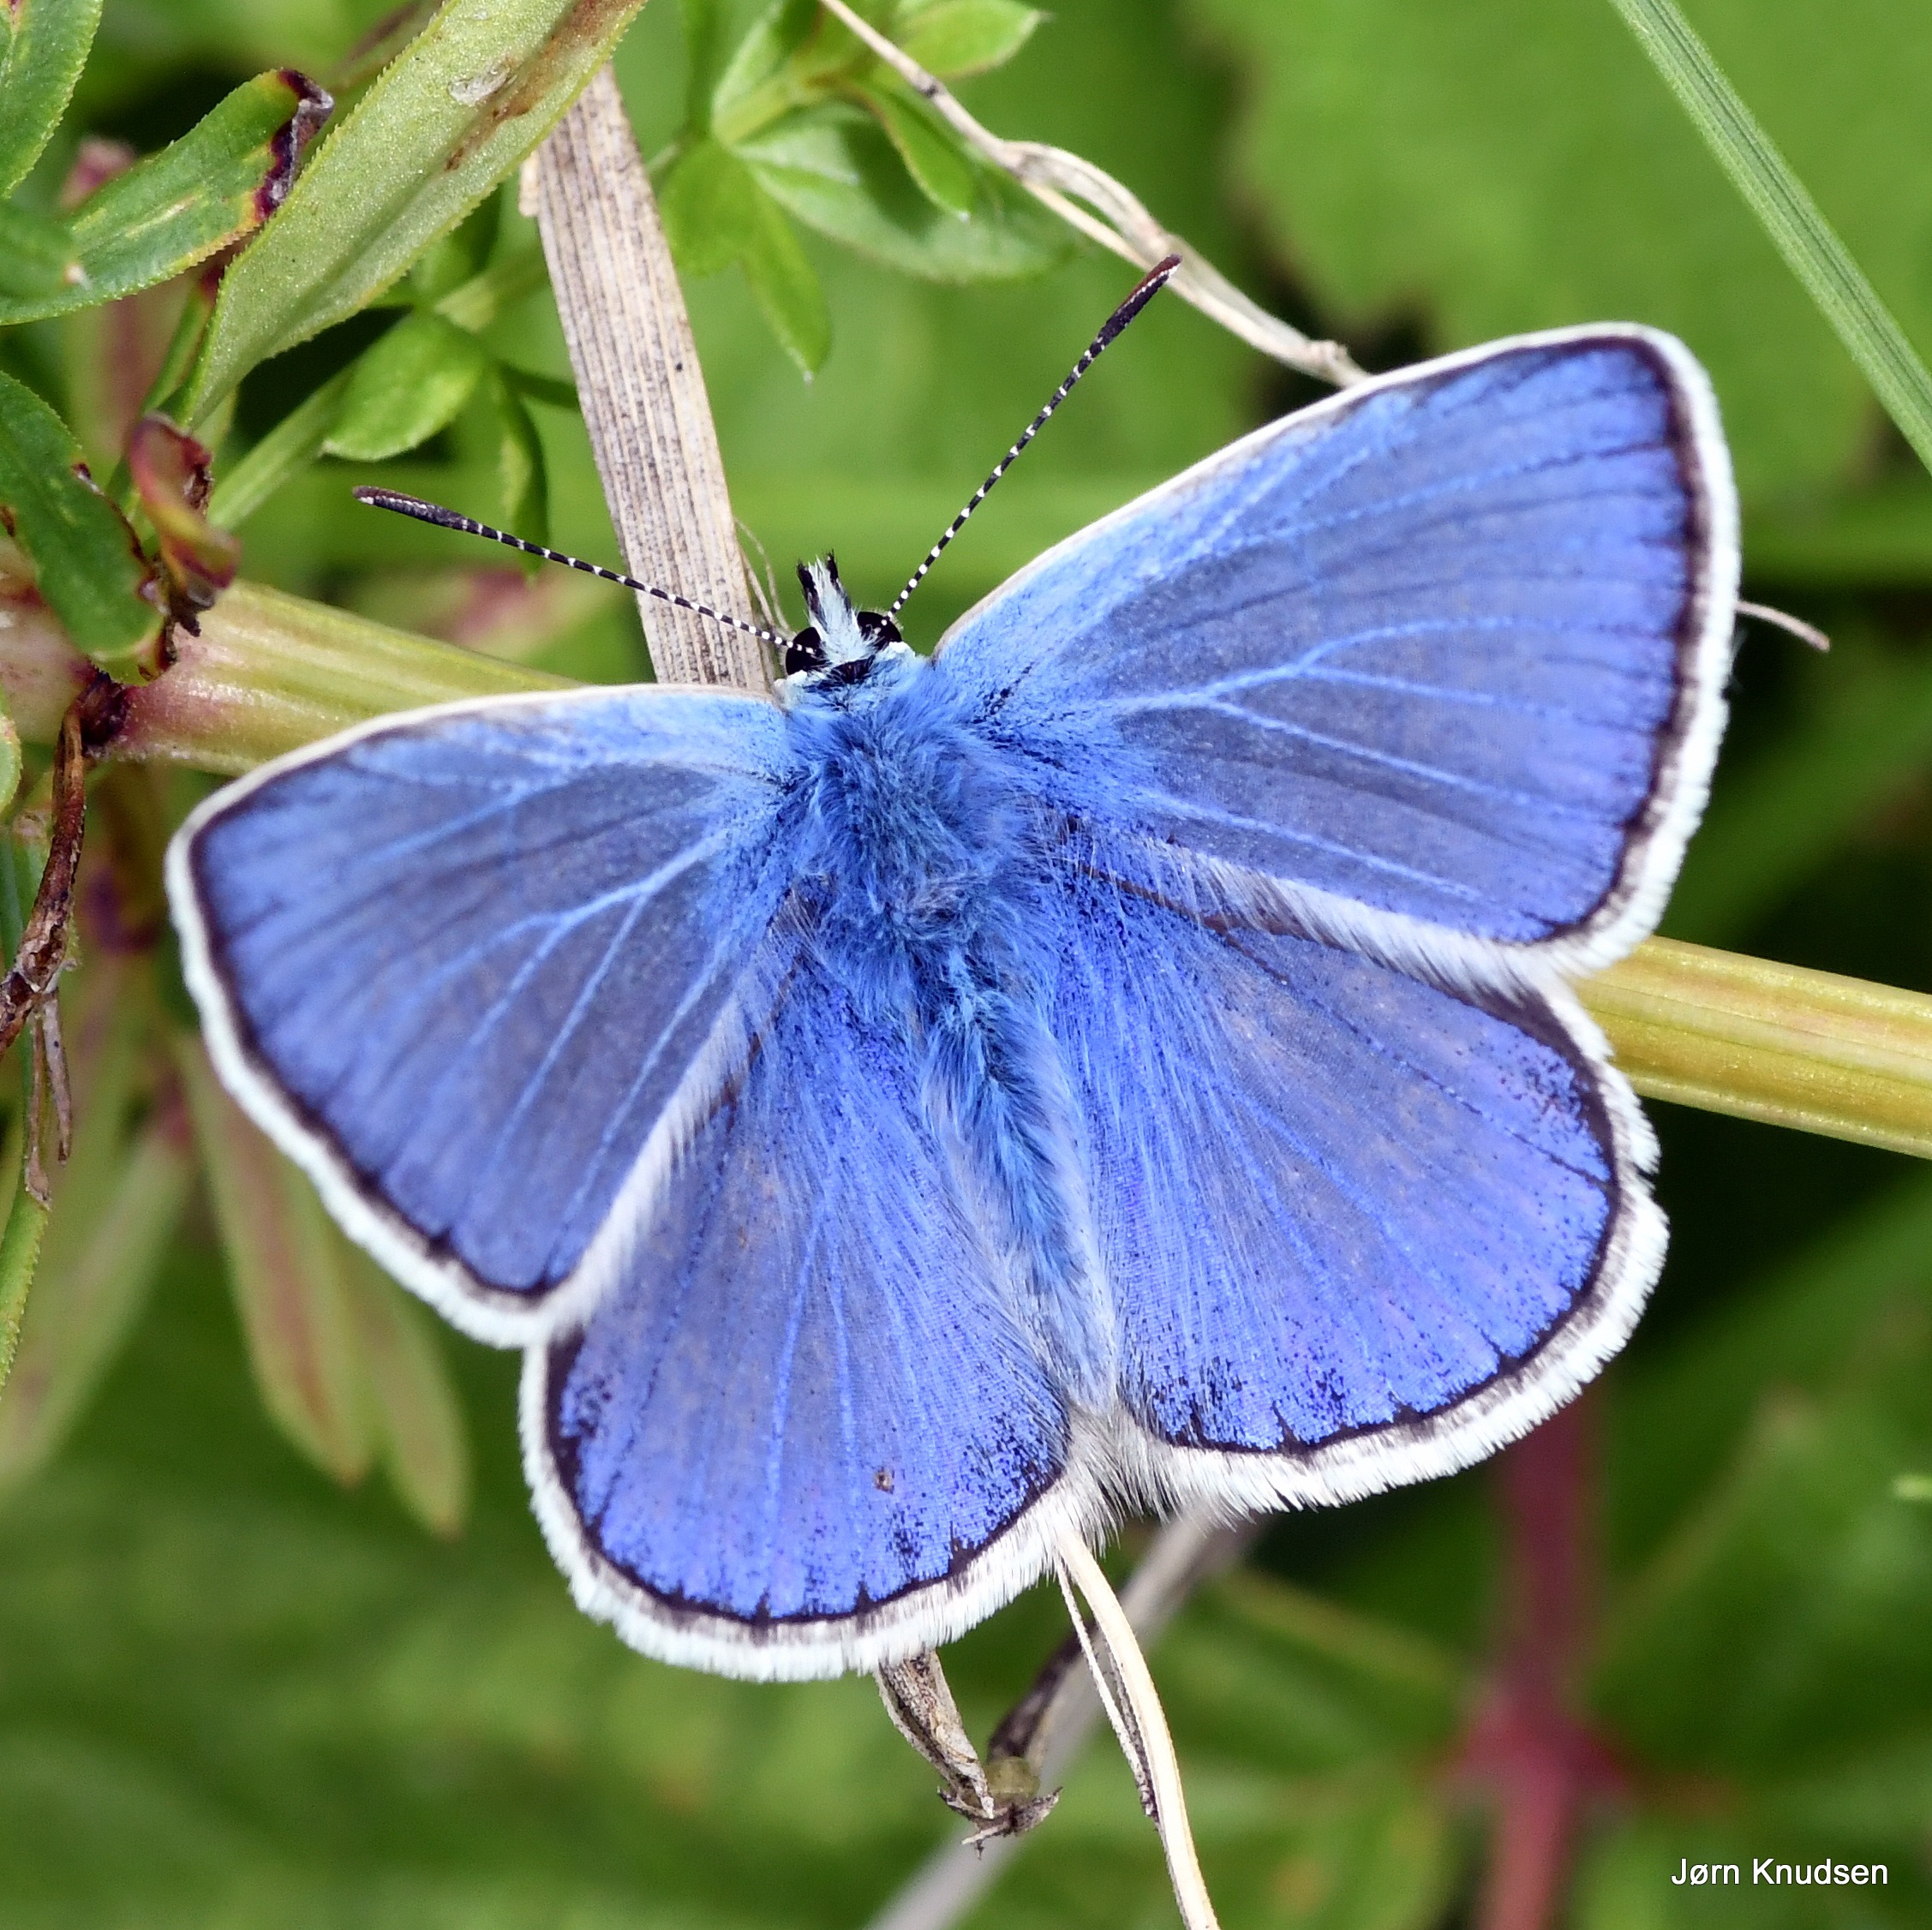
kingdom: Animalia
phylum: Arthropoda
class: Insecta
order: Lepidoptera
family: Lycaenidae
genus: Polyommatus
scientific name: Polyommatus icarus
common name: Almindelig blåfugl
